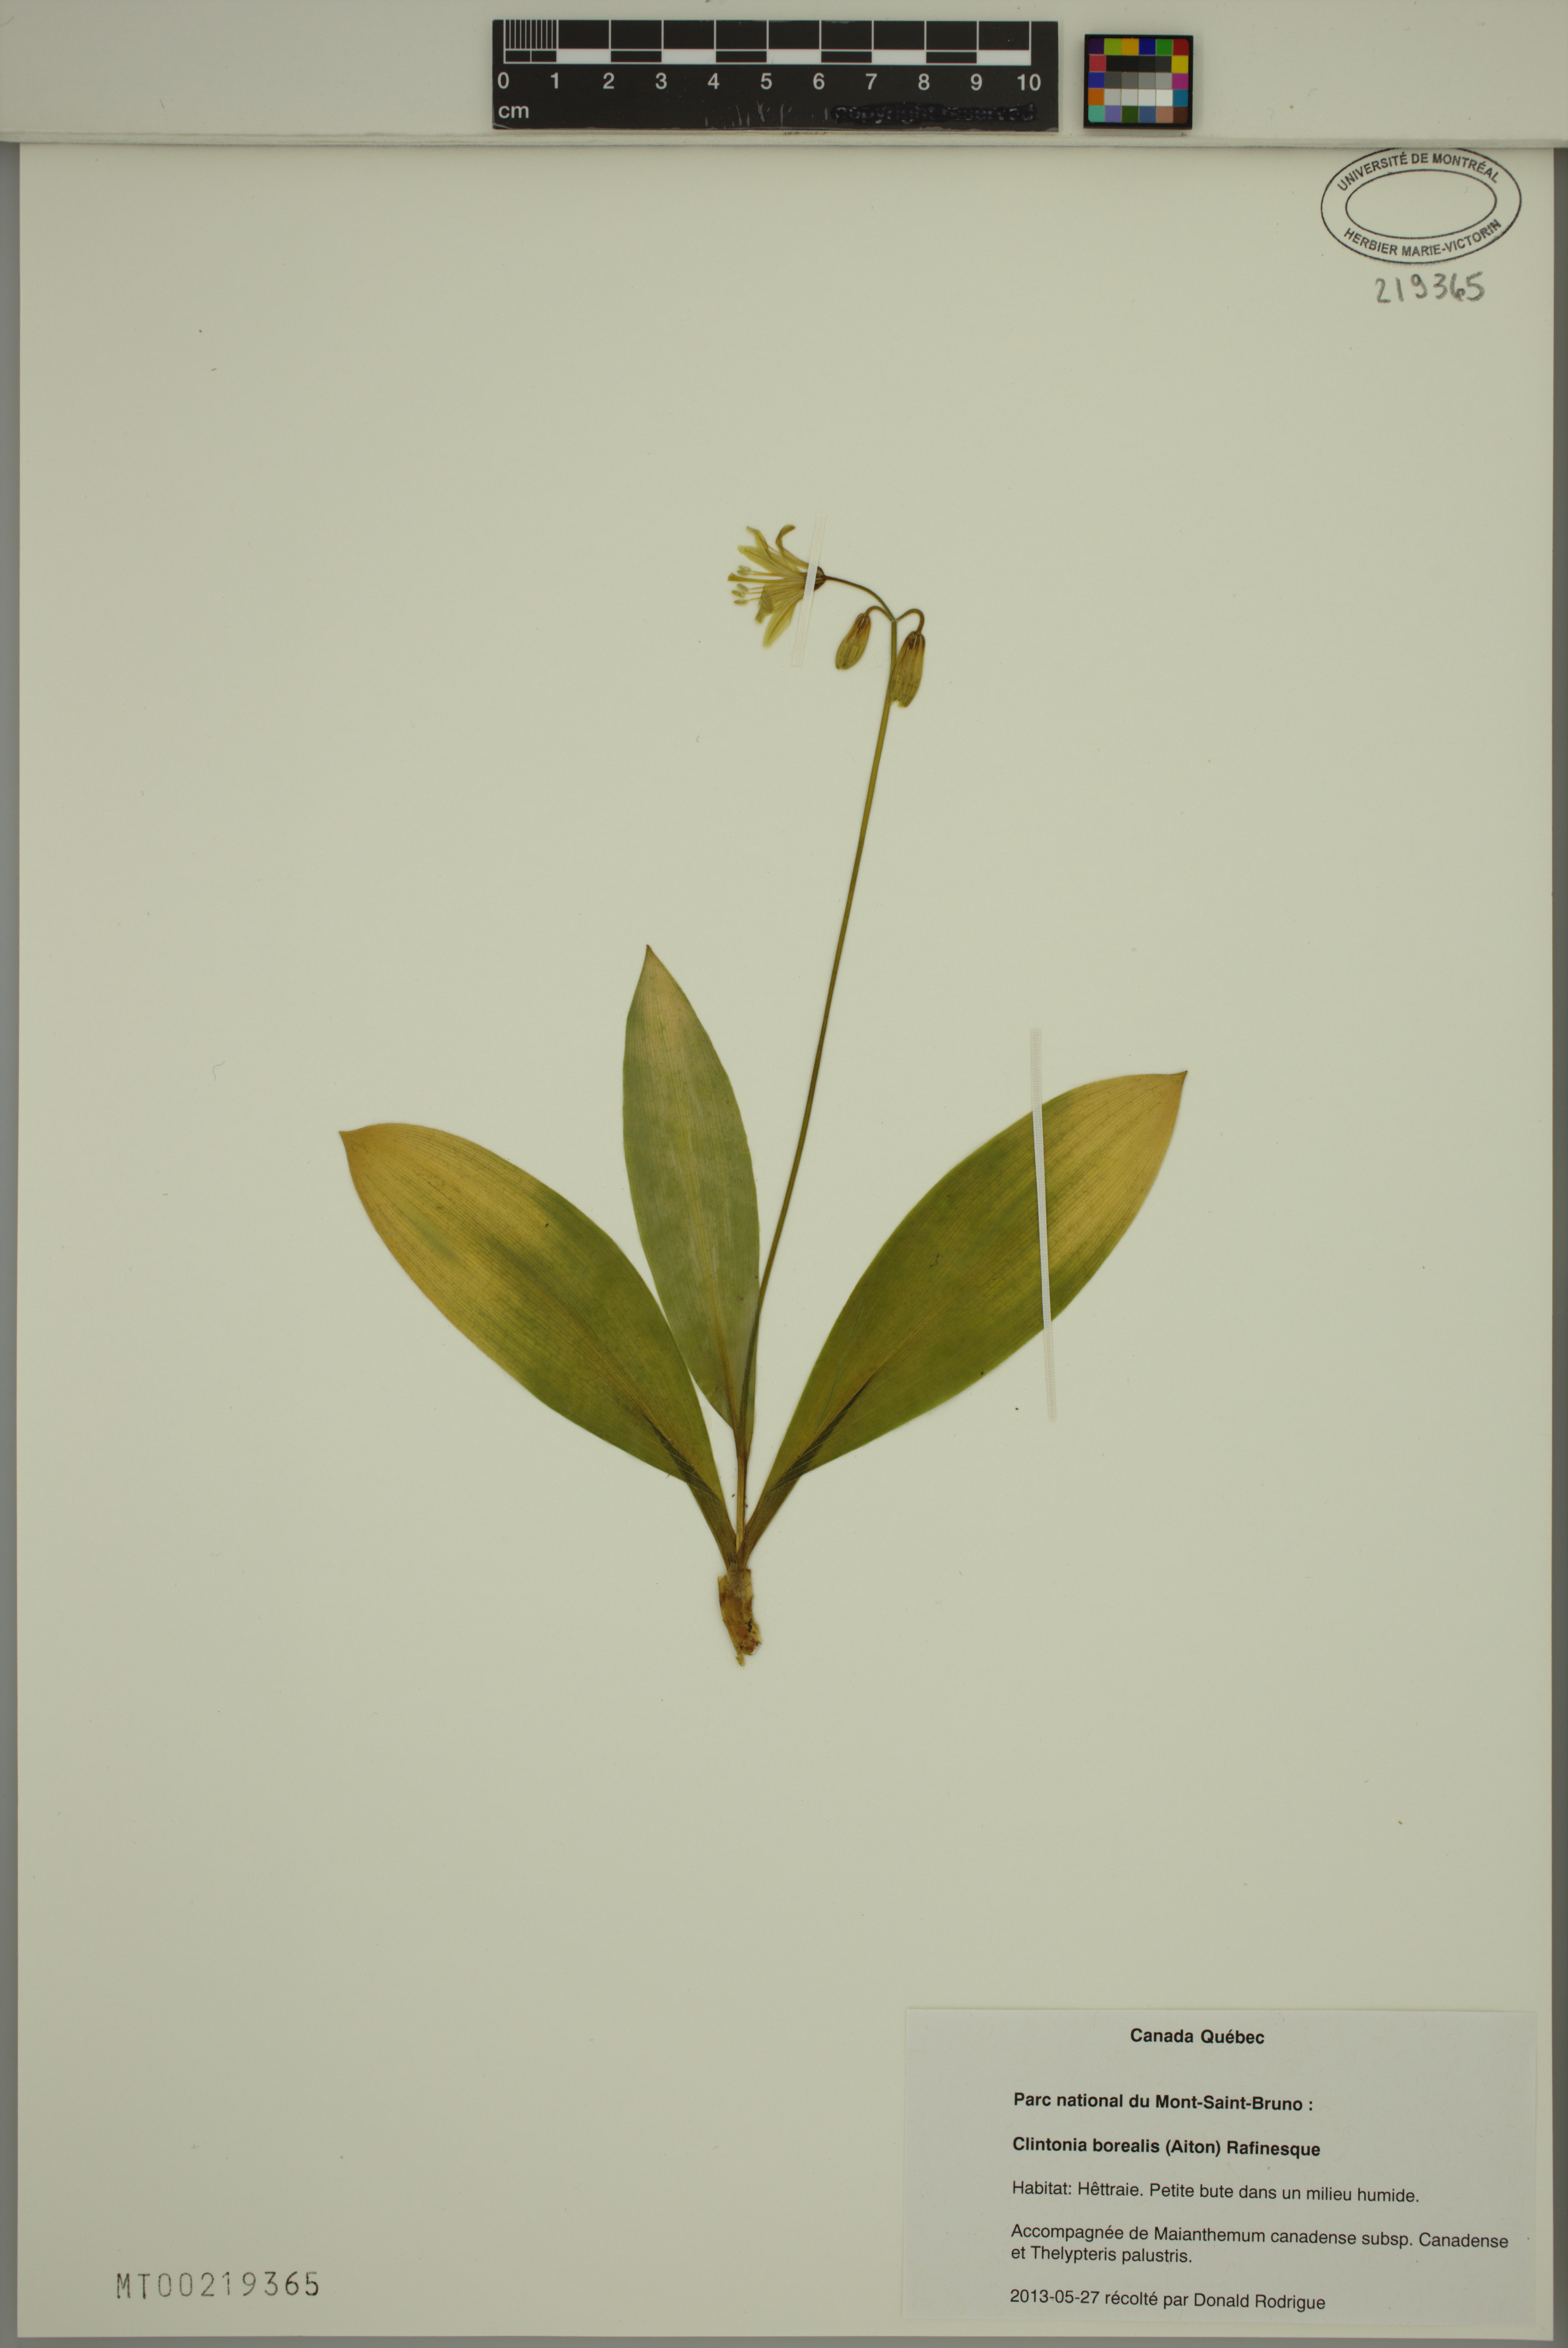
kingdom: Plantae
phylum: Tracheophyta
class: Liliopsida
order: Liliales
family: Liliaceae
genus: Clintonia
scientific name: Clintonia borealis
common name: Yellow clintonia
